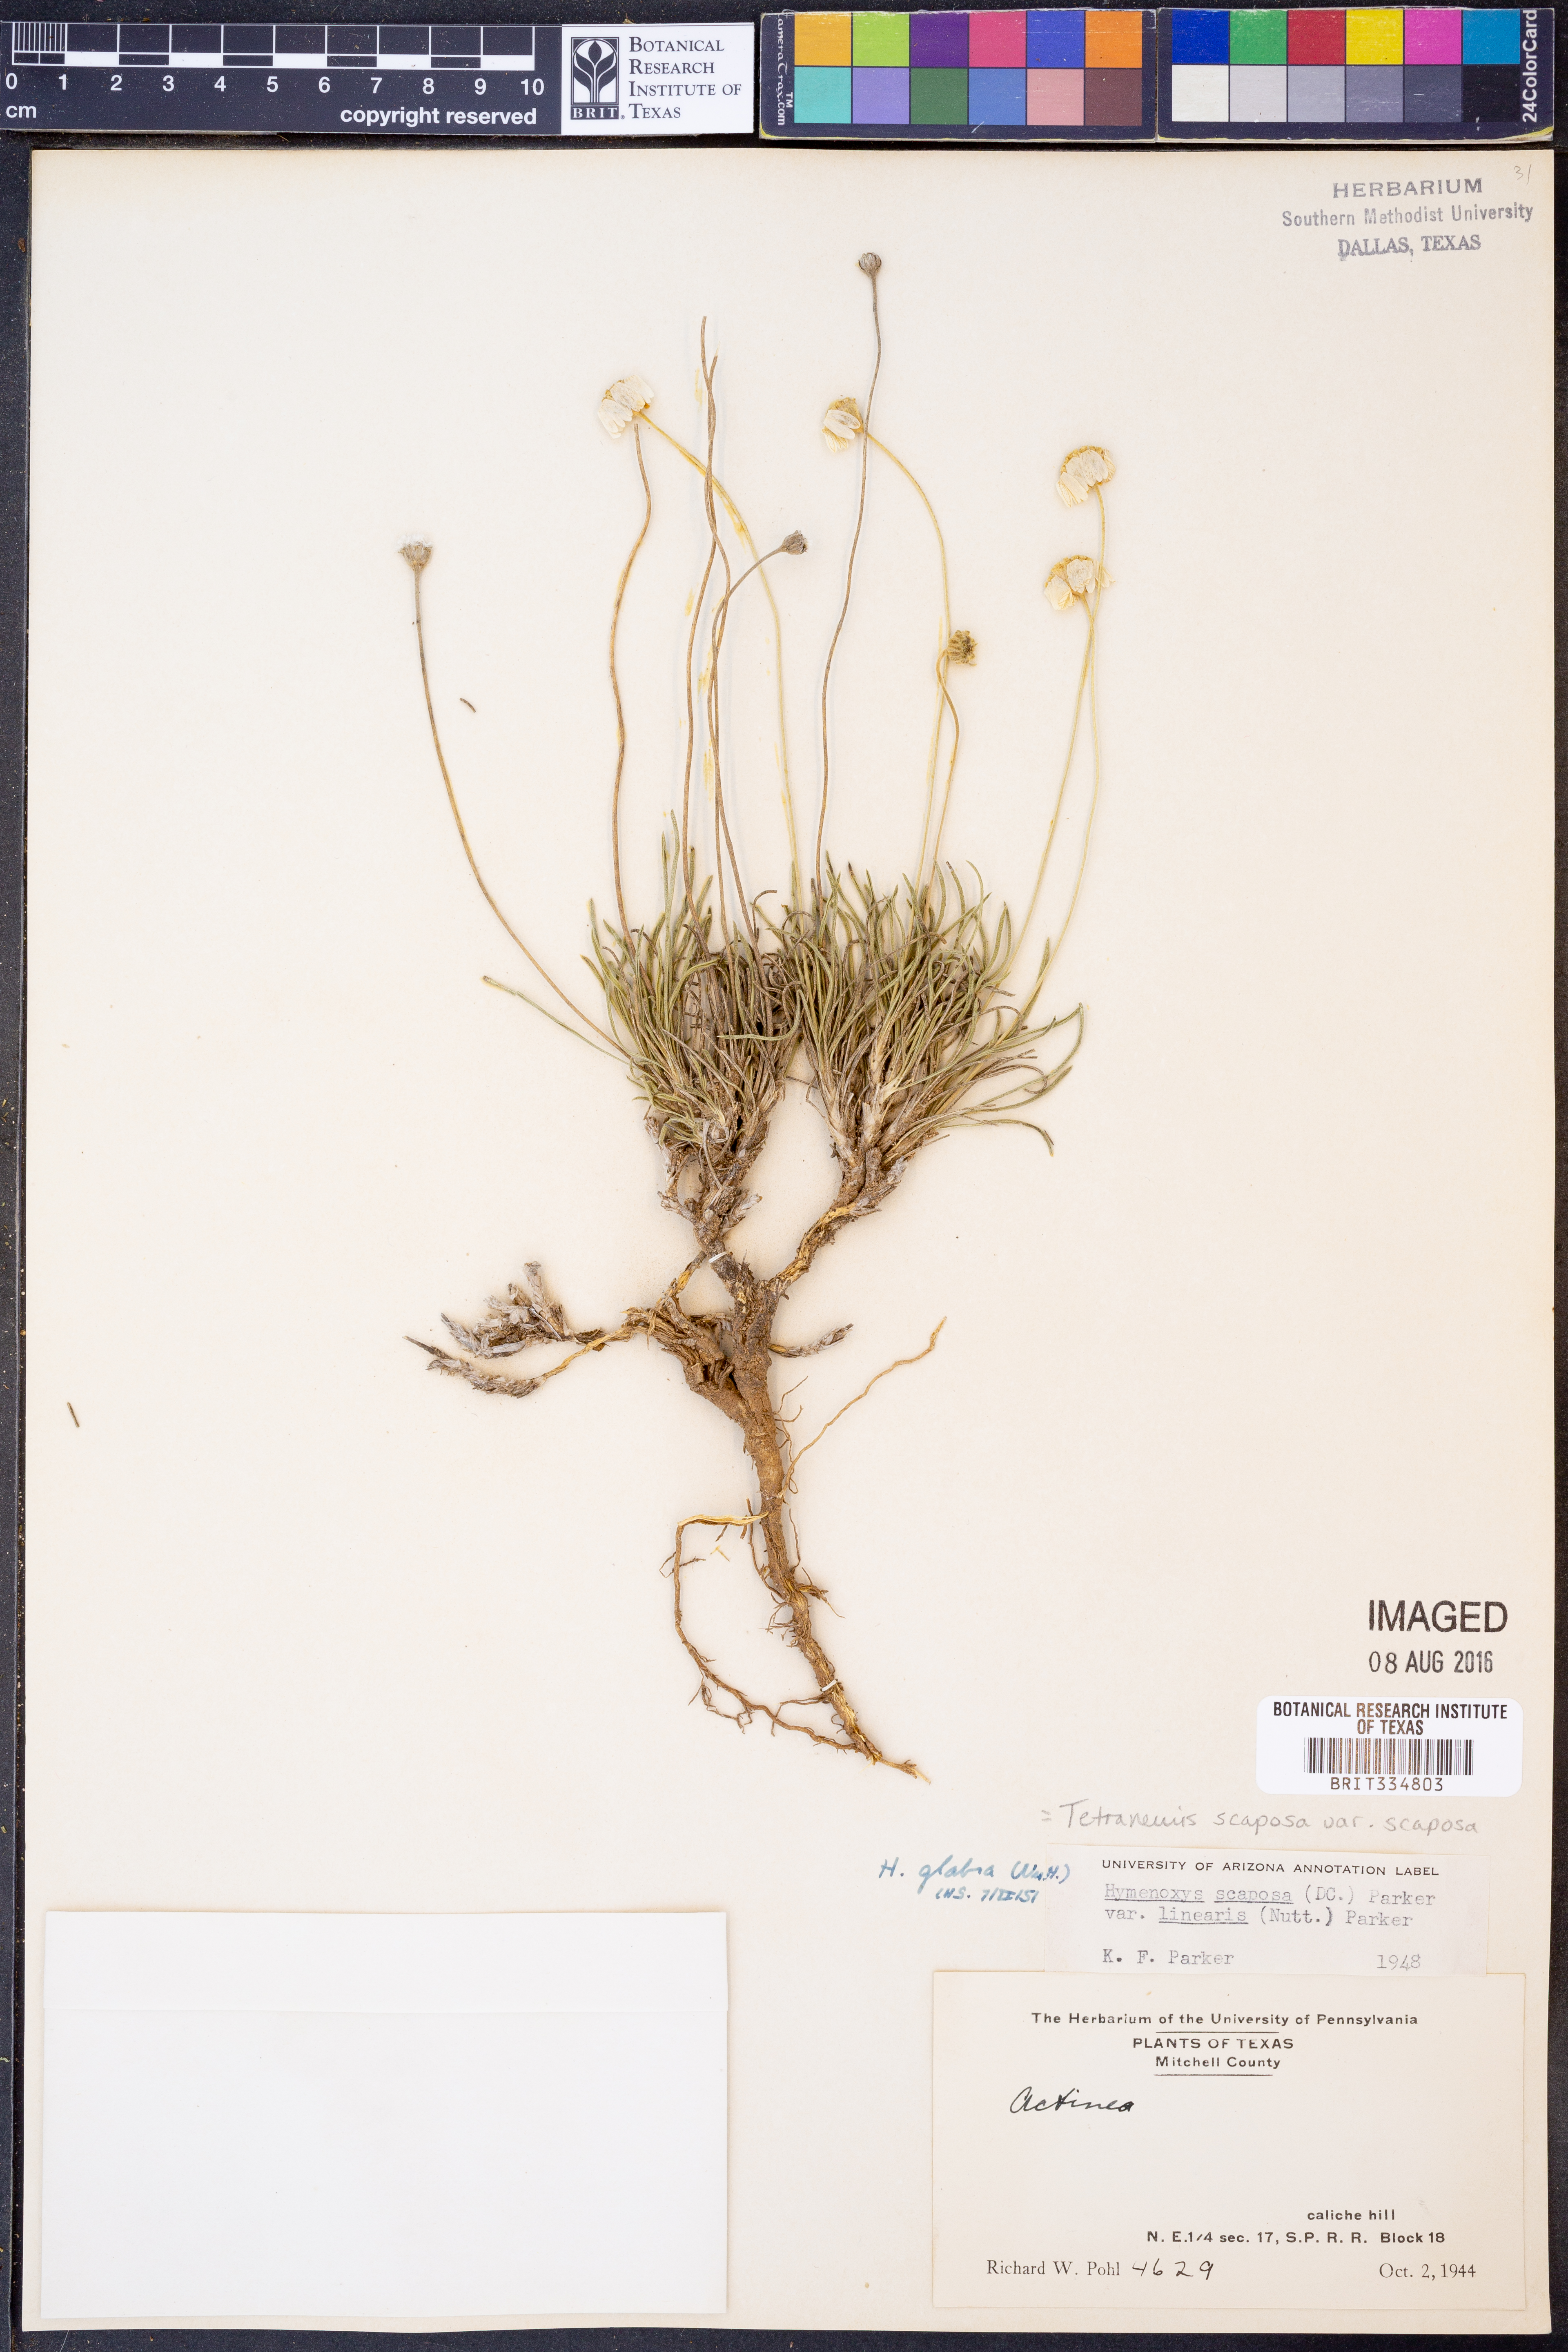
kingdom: Plantae
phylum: Tracheophyta
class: Magnoliopsida
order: Asterales
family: Asteraceae
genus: Tetraneuris
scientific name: Tetraneuris scaposa
